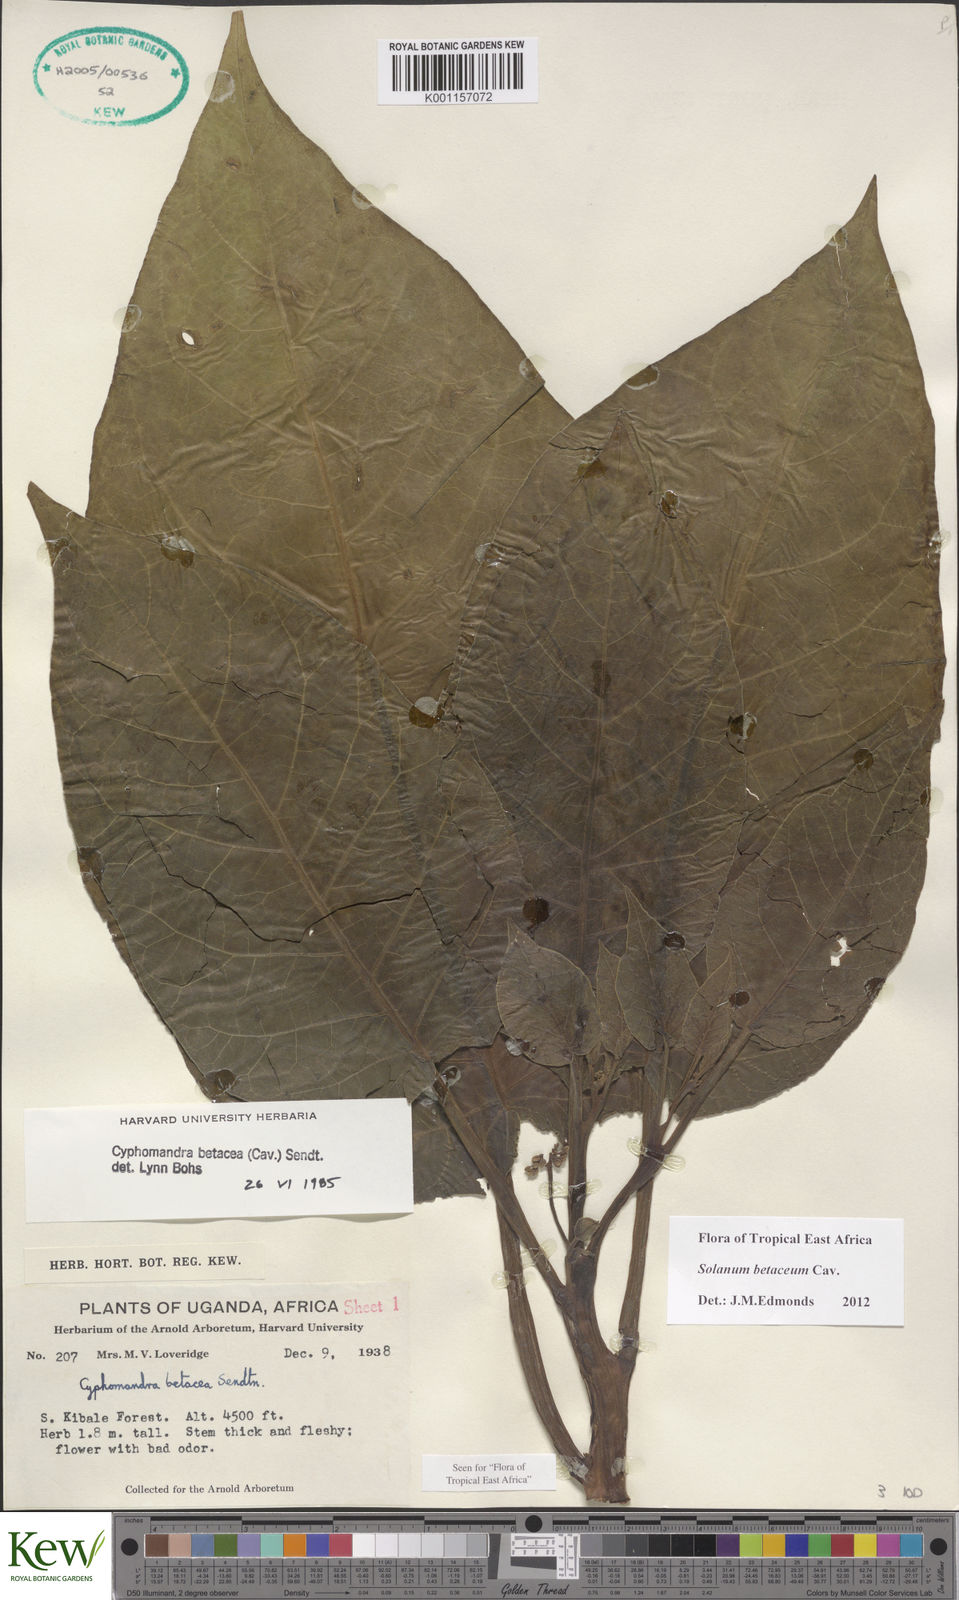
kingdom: Plantae
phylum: Tracheophyta
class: Magnoliopsida
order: Solanales
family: Solanaceae
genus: Solanum
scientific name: Solanum betaceum
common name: Tamarillo
